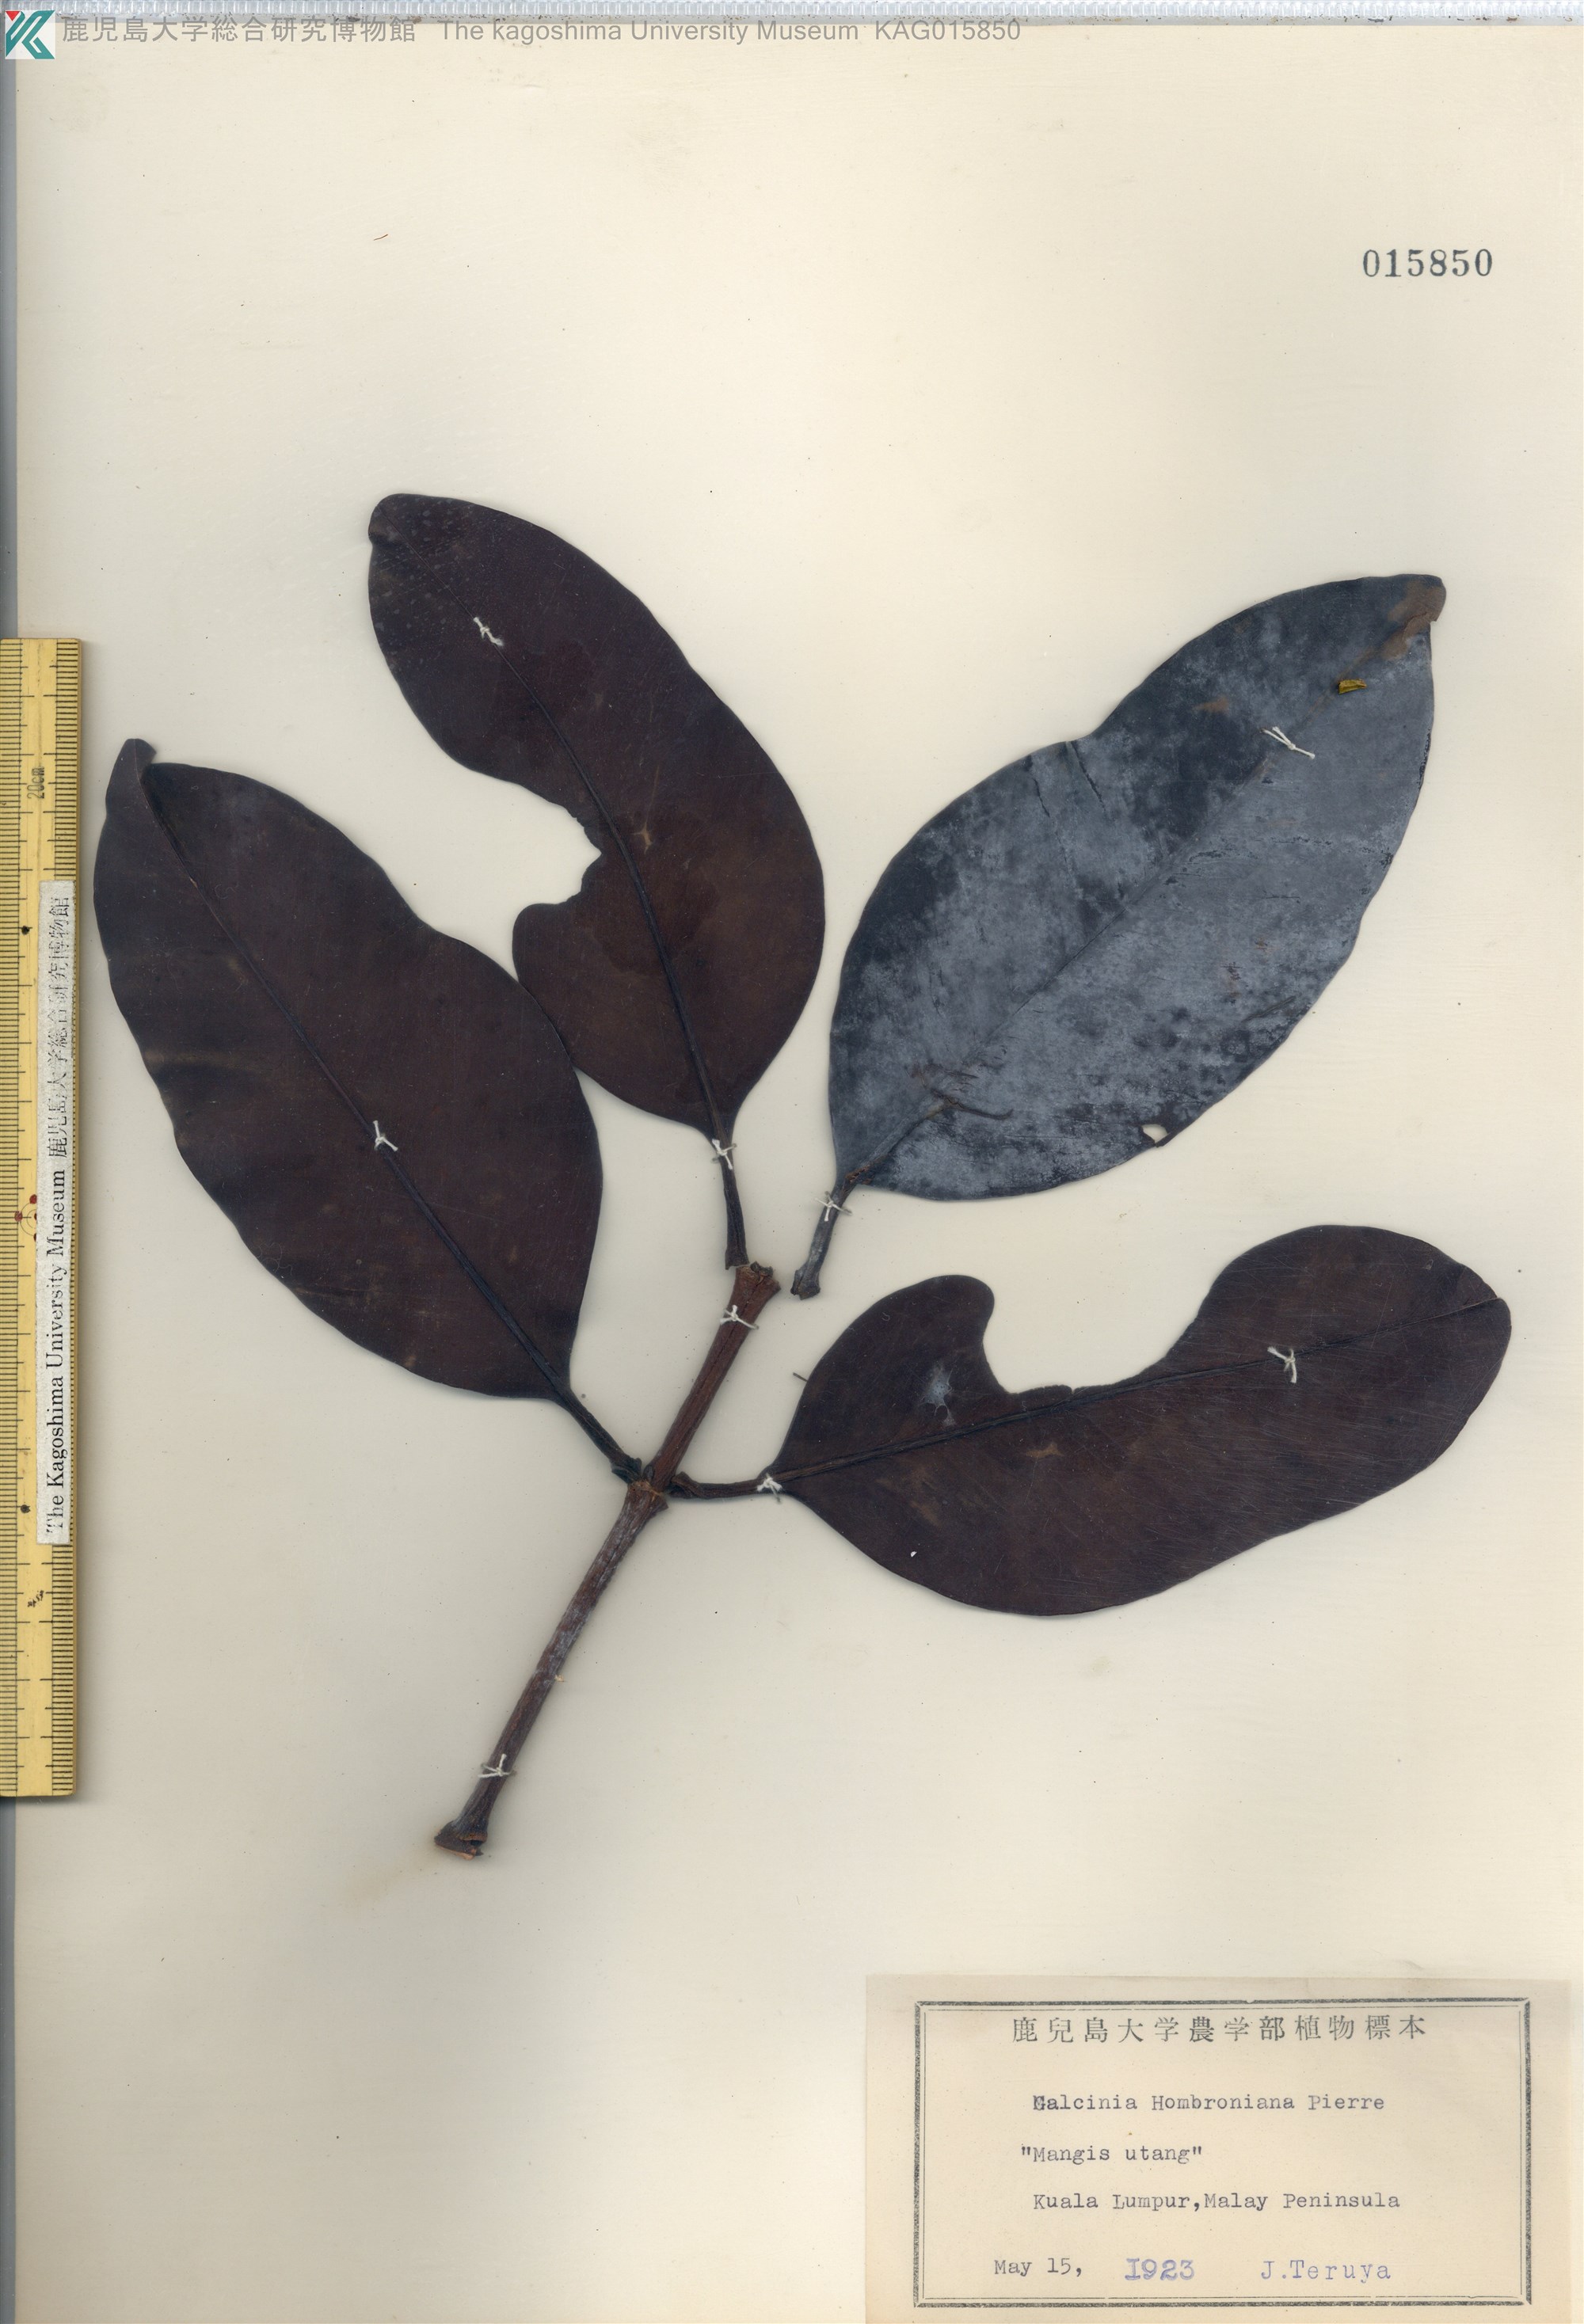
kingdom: Plantae
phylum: Tracheophyta
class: Magnoliopsida
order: Malpighiales
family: Clusiaceae
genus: Garcinia
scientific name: Garcinia hombroniana
